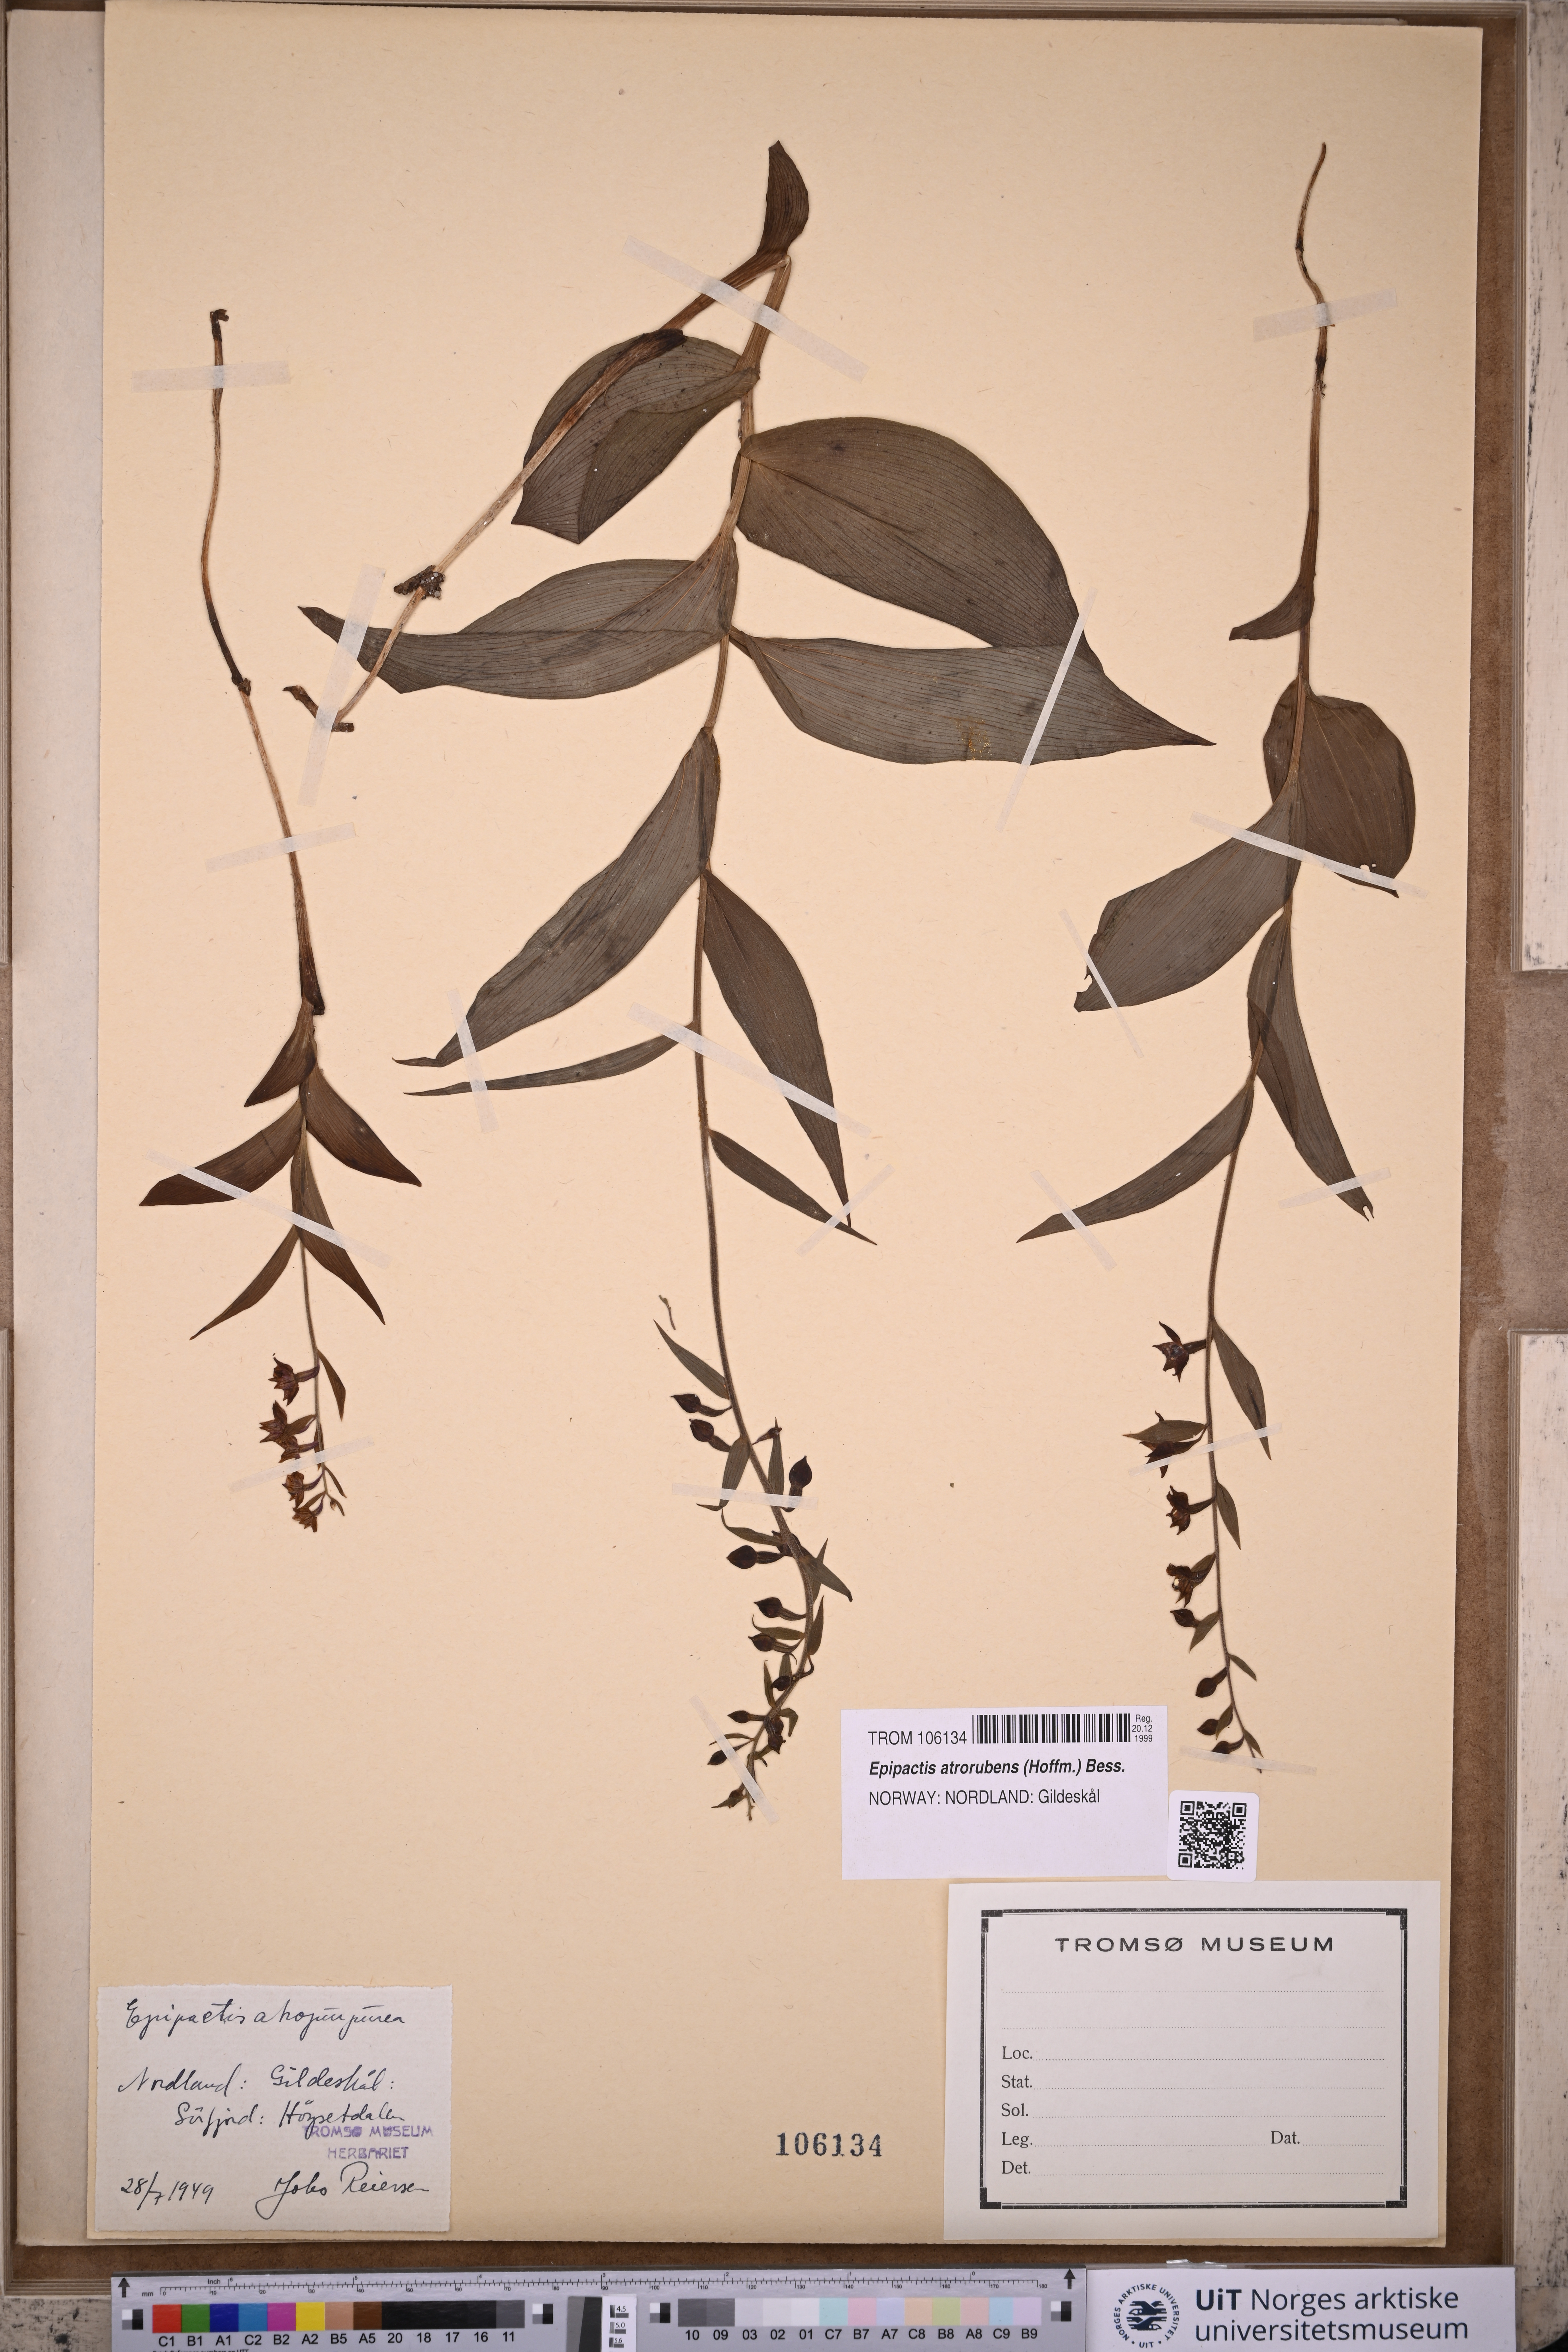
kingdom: Plantae
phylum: Tracheophyta
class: Liliopsida
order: Asparagales
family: Orchidaceae
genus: Epipactis
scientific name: Epipactis atrorubens
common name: Dark-red helleborine
